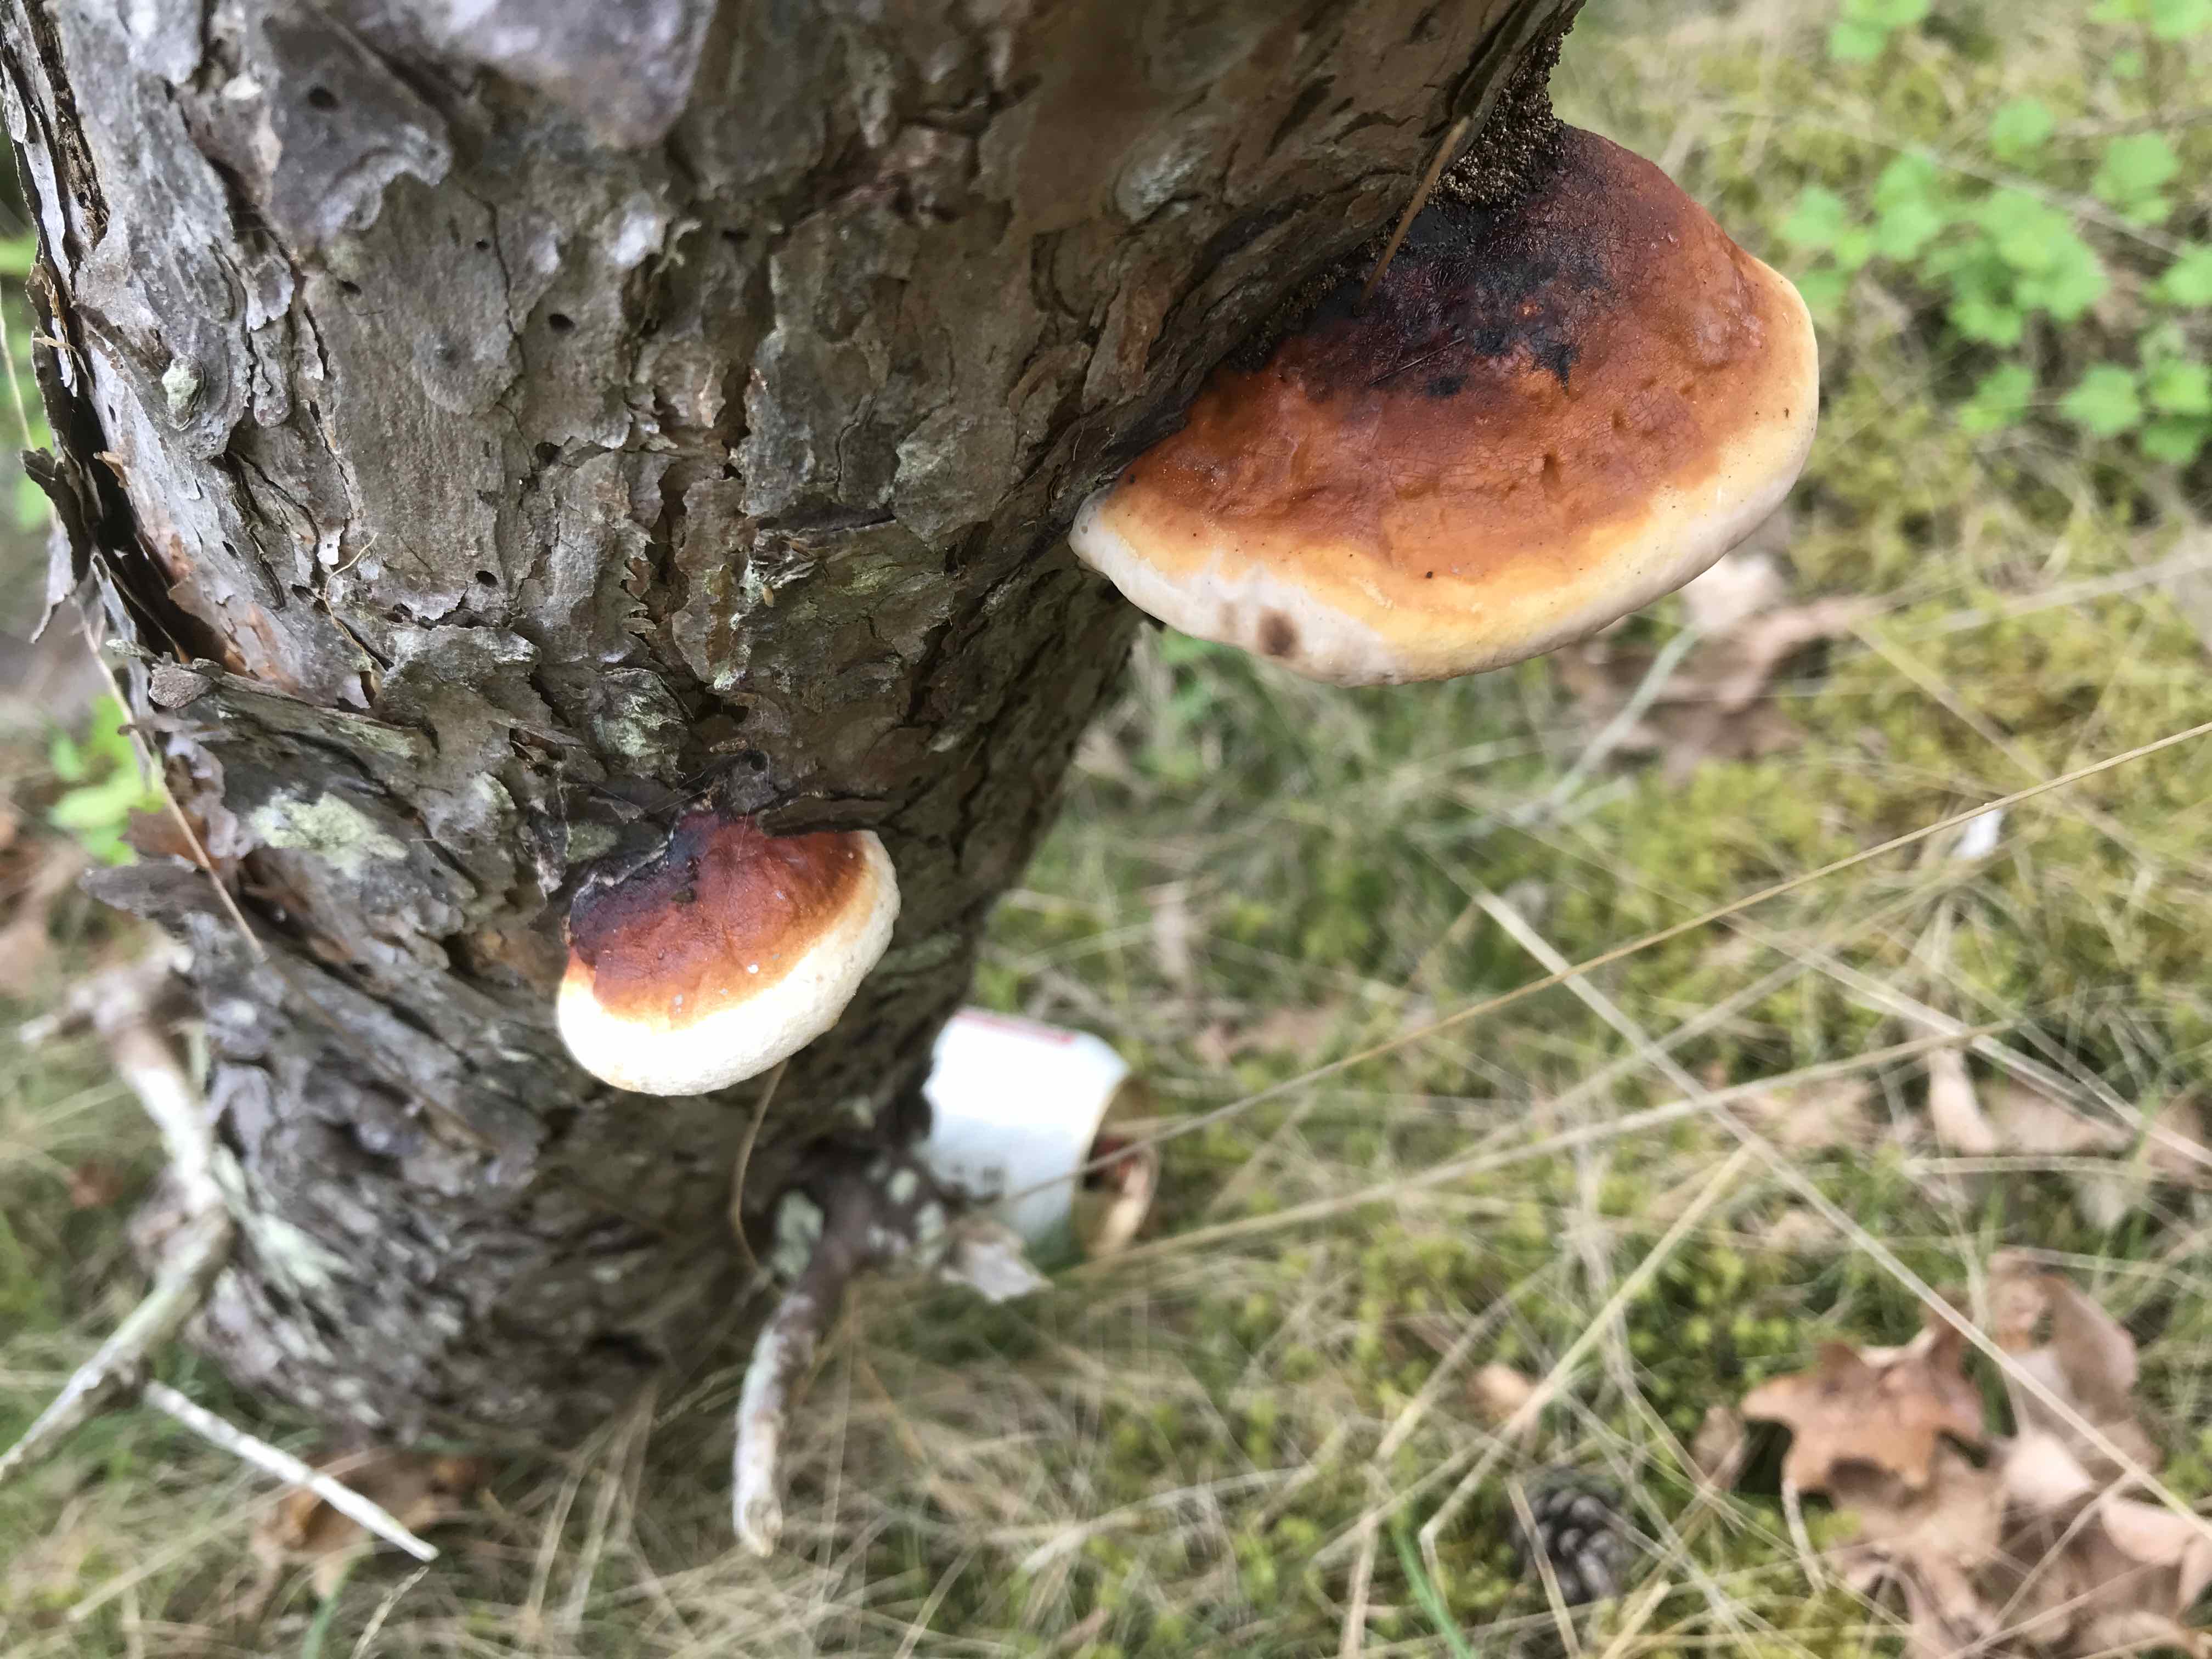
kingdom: Fungi
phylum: Basidiomycota
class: Agaricomycetes
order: Polyporales
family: Fomitopsidaceae
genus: Fomitopsis
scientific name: Fomitopsis pinicola
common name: randbæltet hovporesvamp
